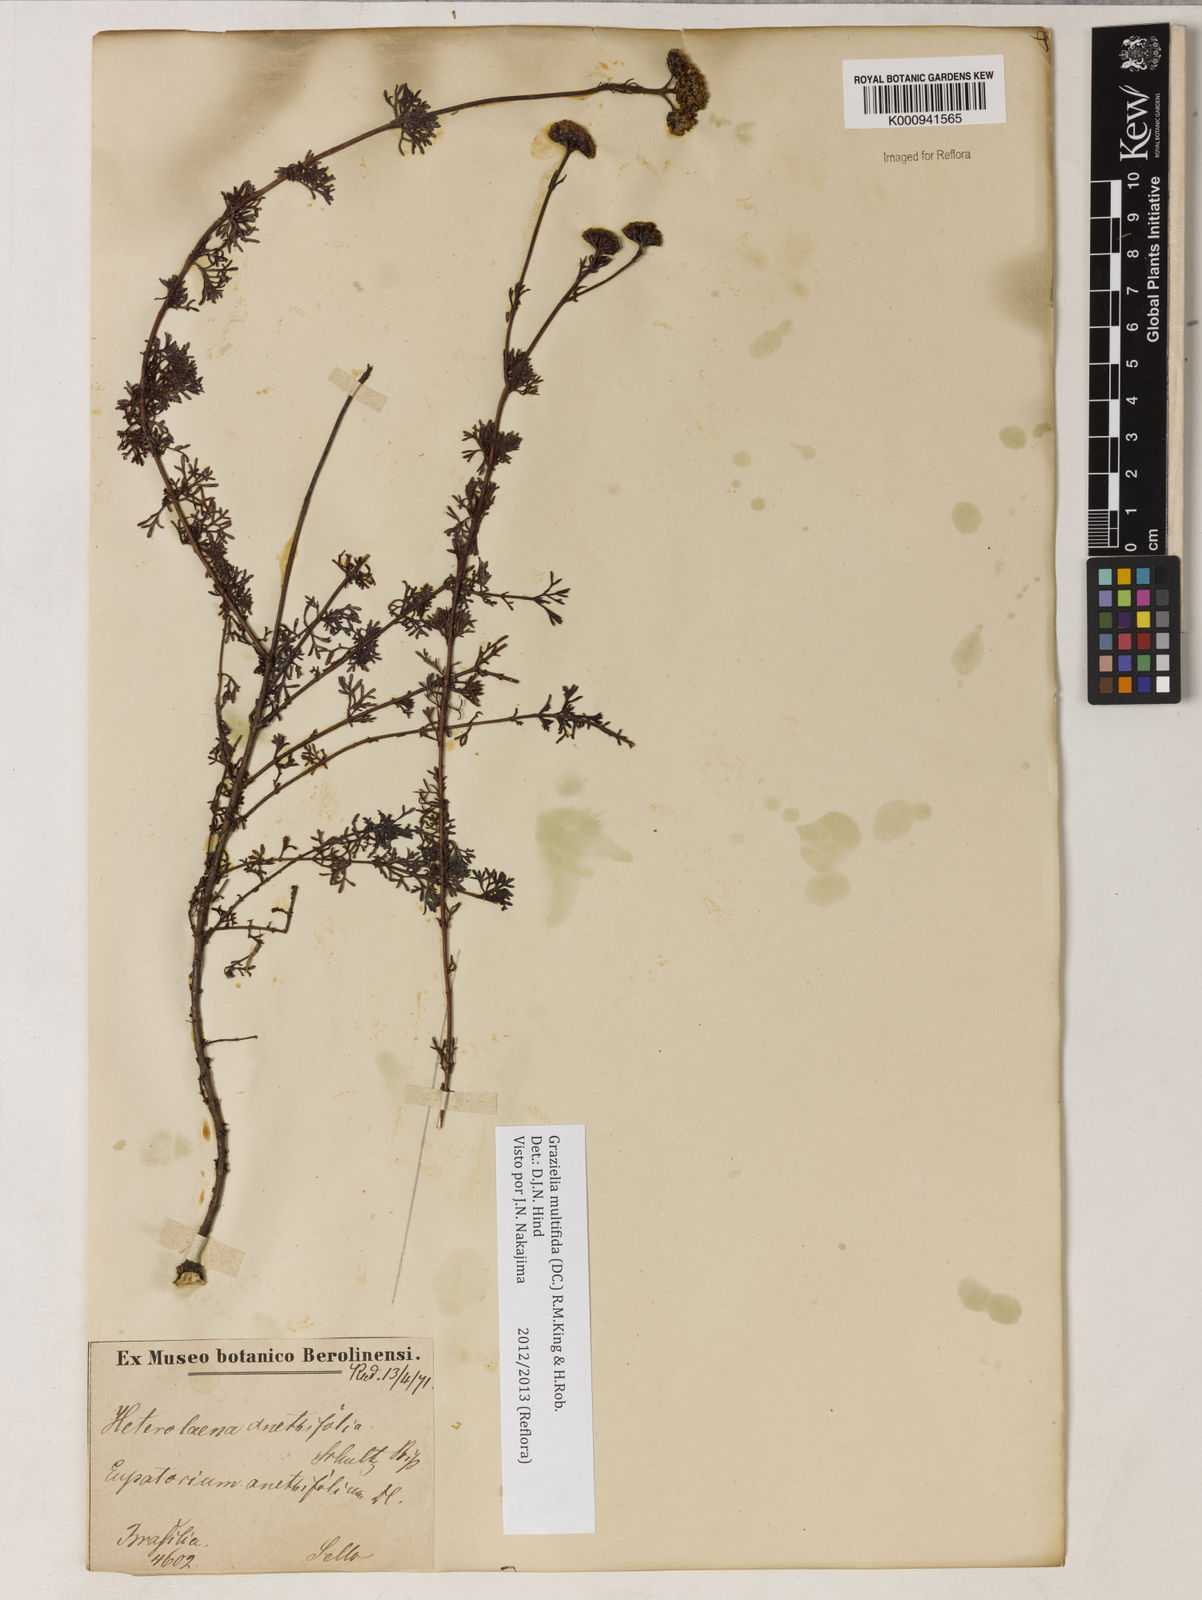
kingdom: Plantae
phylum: Tracheophyta
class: Magnoliopsida
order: Asterales
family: Asteraceae
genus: Grazielia
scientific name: Grazielia multifida
